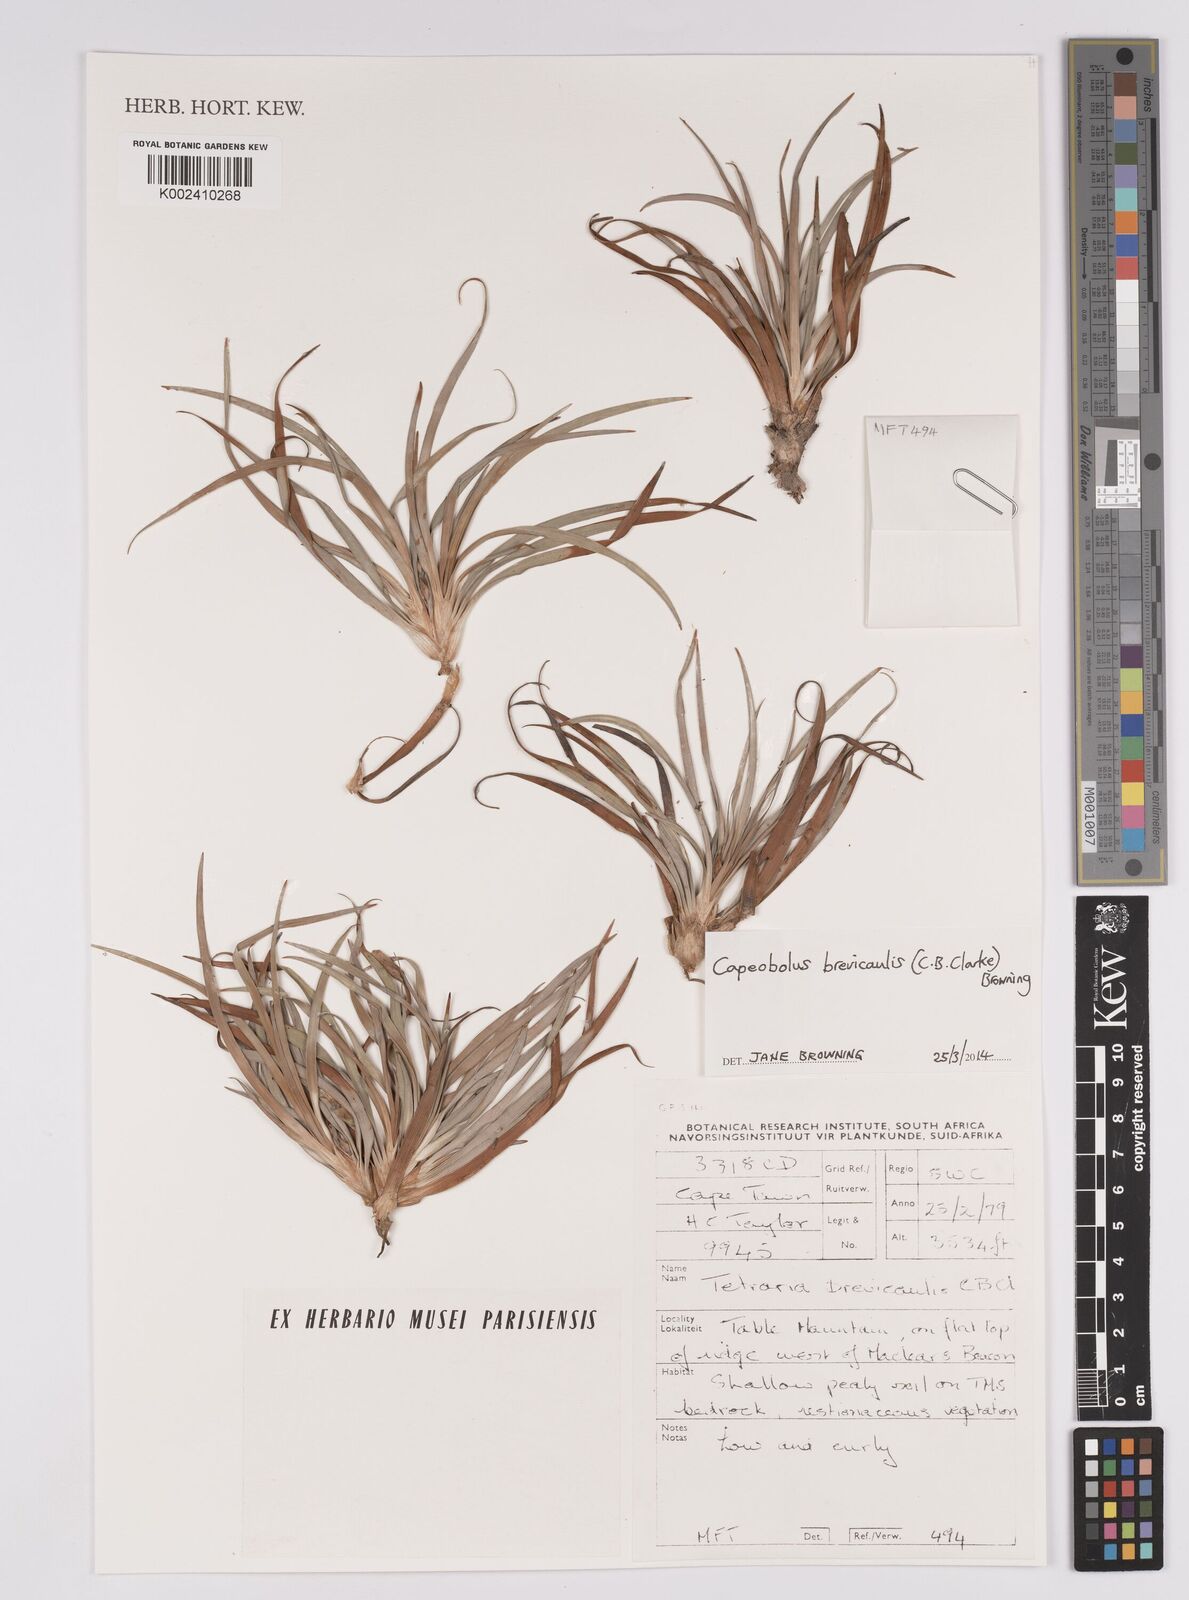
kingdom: Plantae
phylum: Tracheophyta
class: Liliopsida
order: Poales
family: Cyperaceae
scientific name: Cyperaceae
